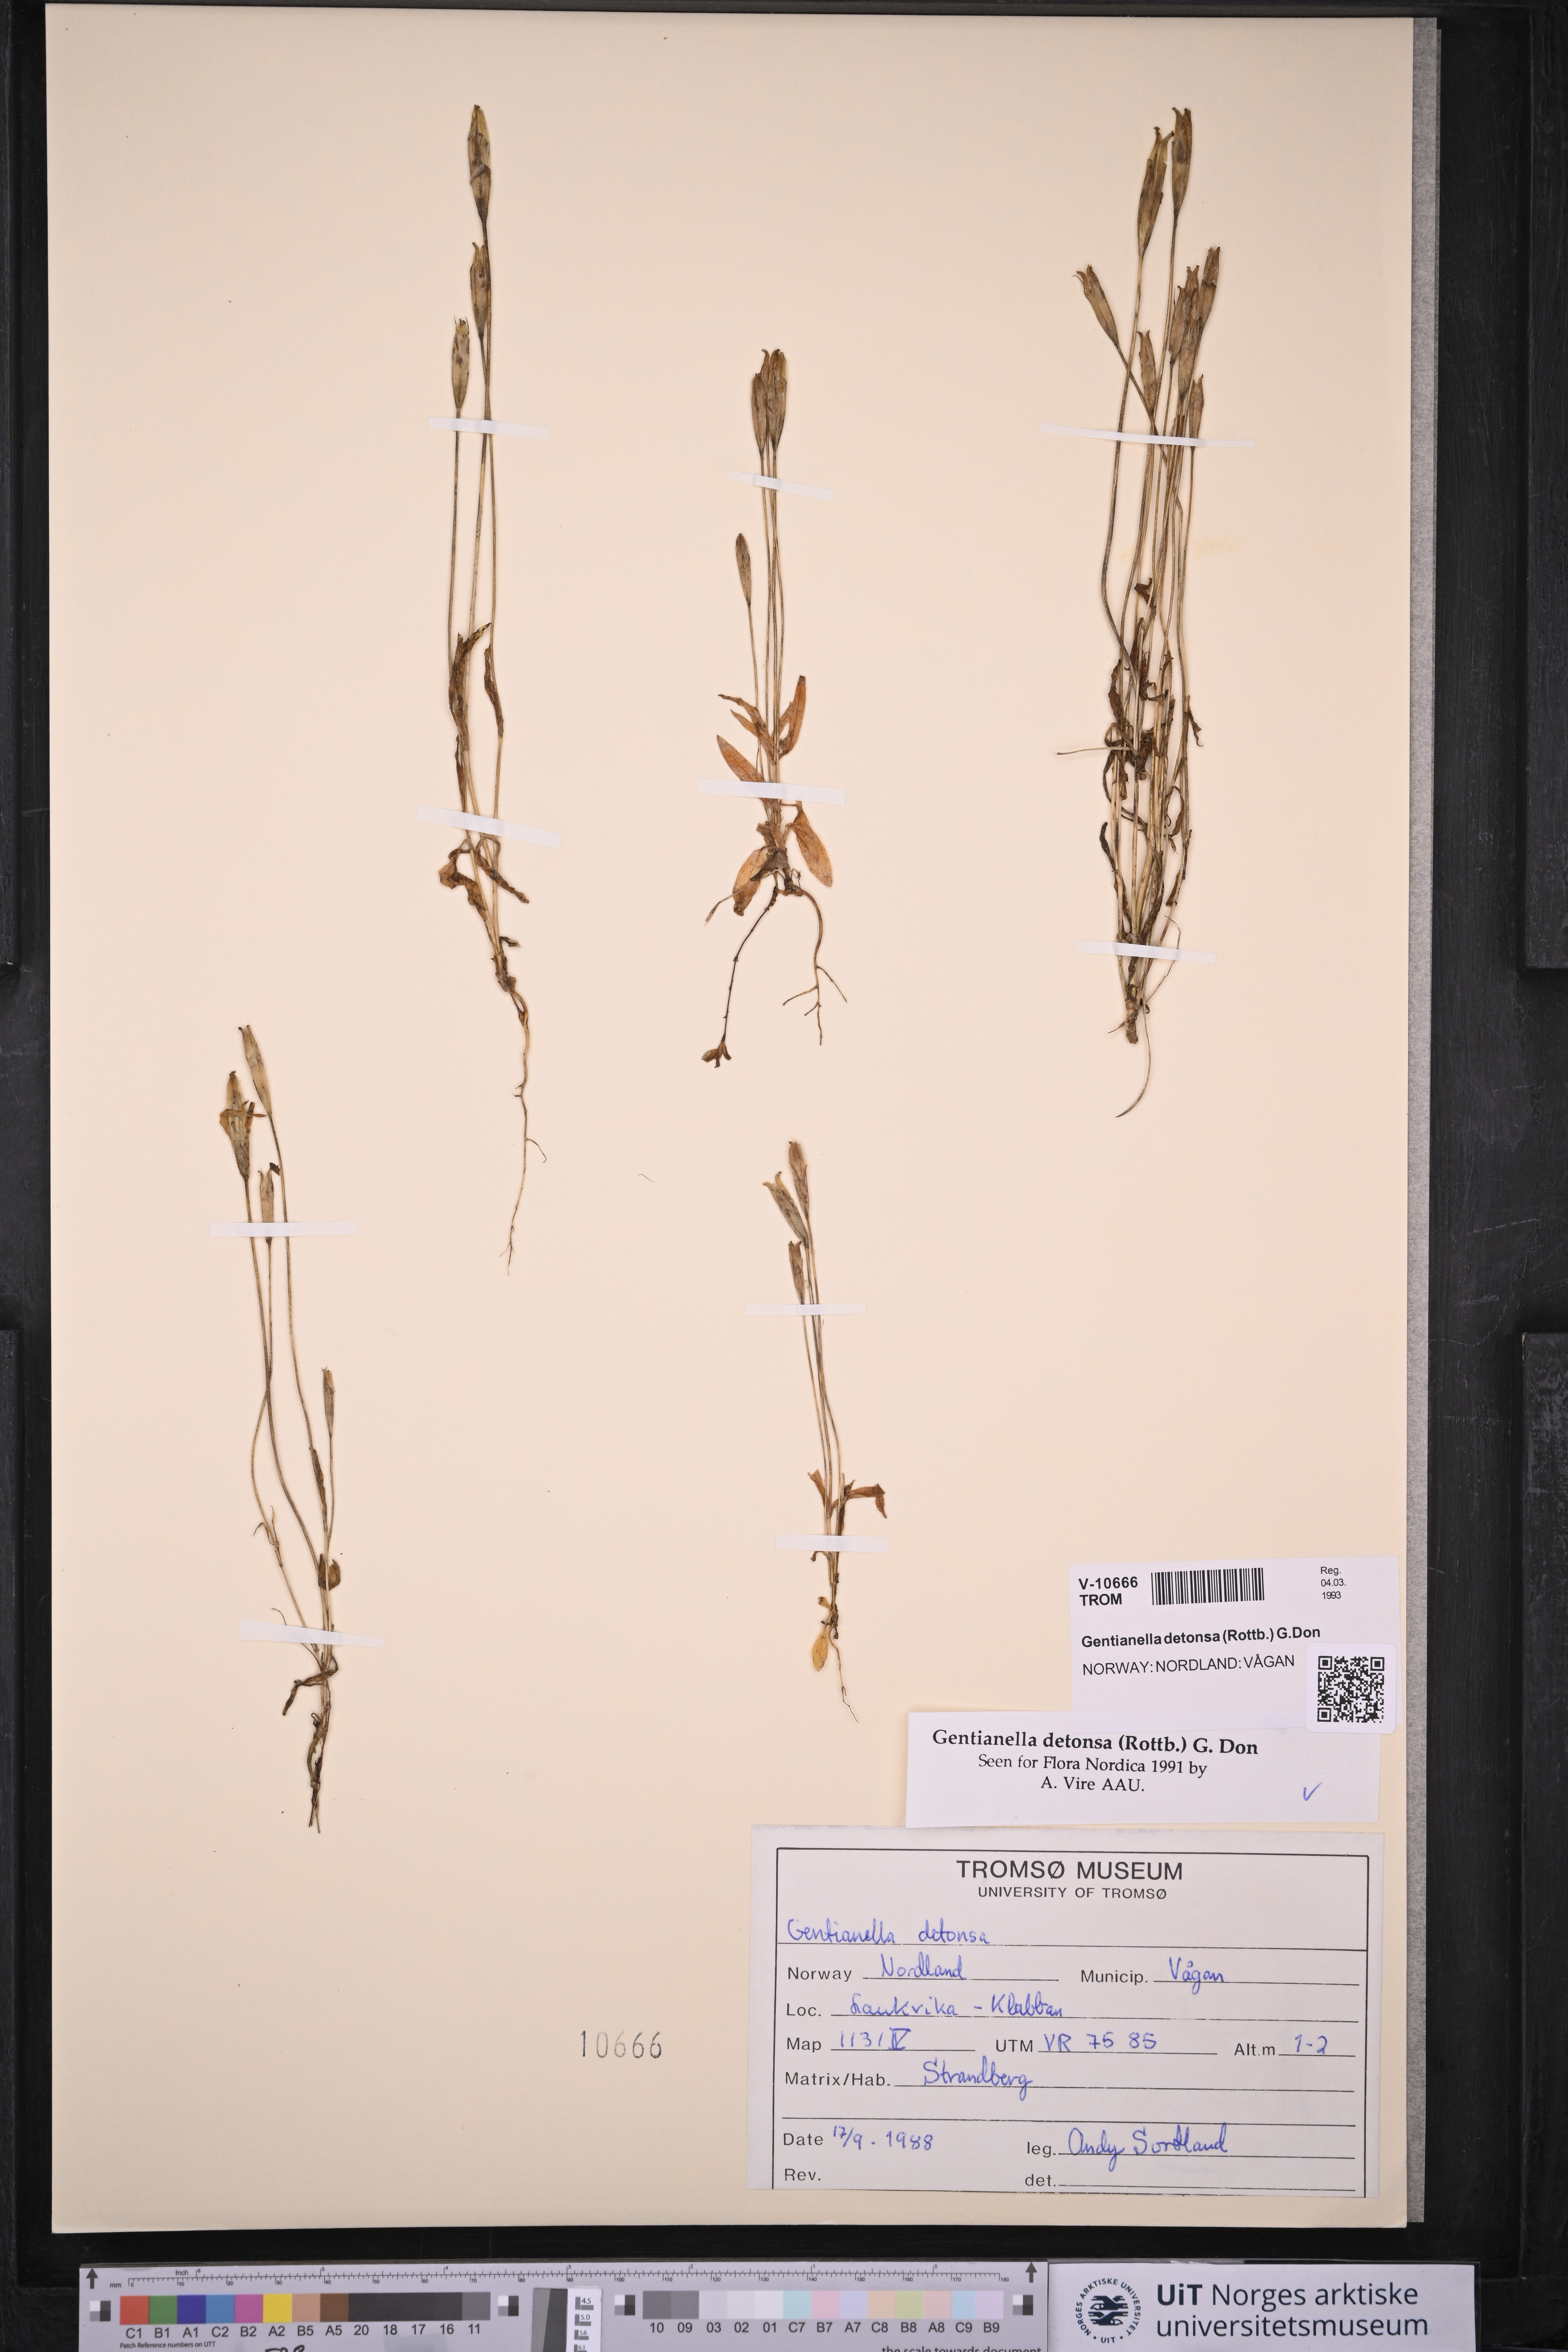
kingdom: Plantae
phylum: Tracheophyta
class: Magnoliopsida
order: Gentianales
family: Gentianaceae
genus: Gentianopsis
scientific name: Gentianopsis detonsa
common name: Fringed-gentian
